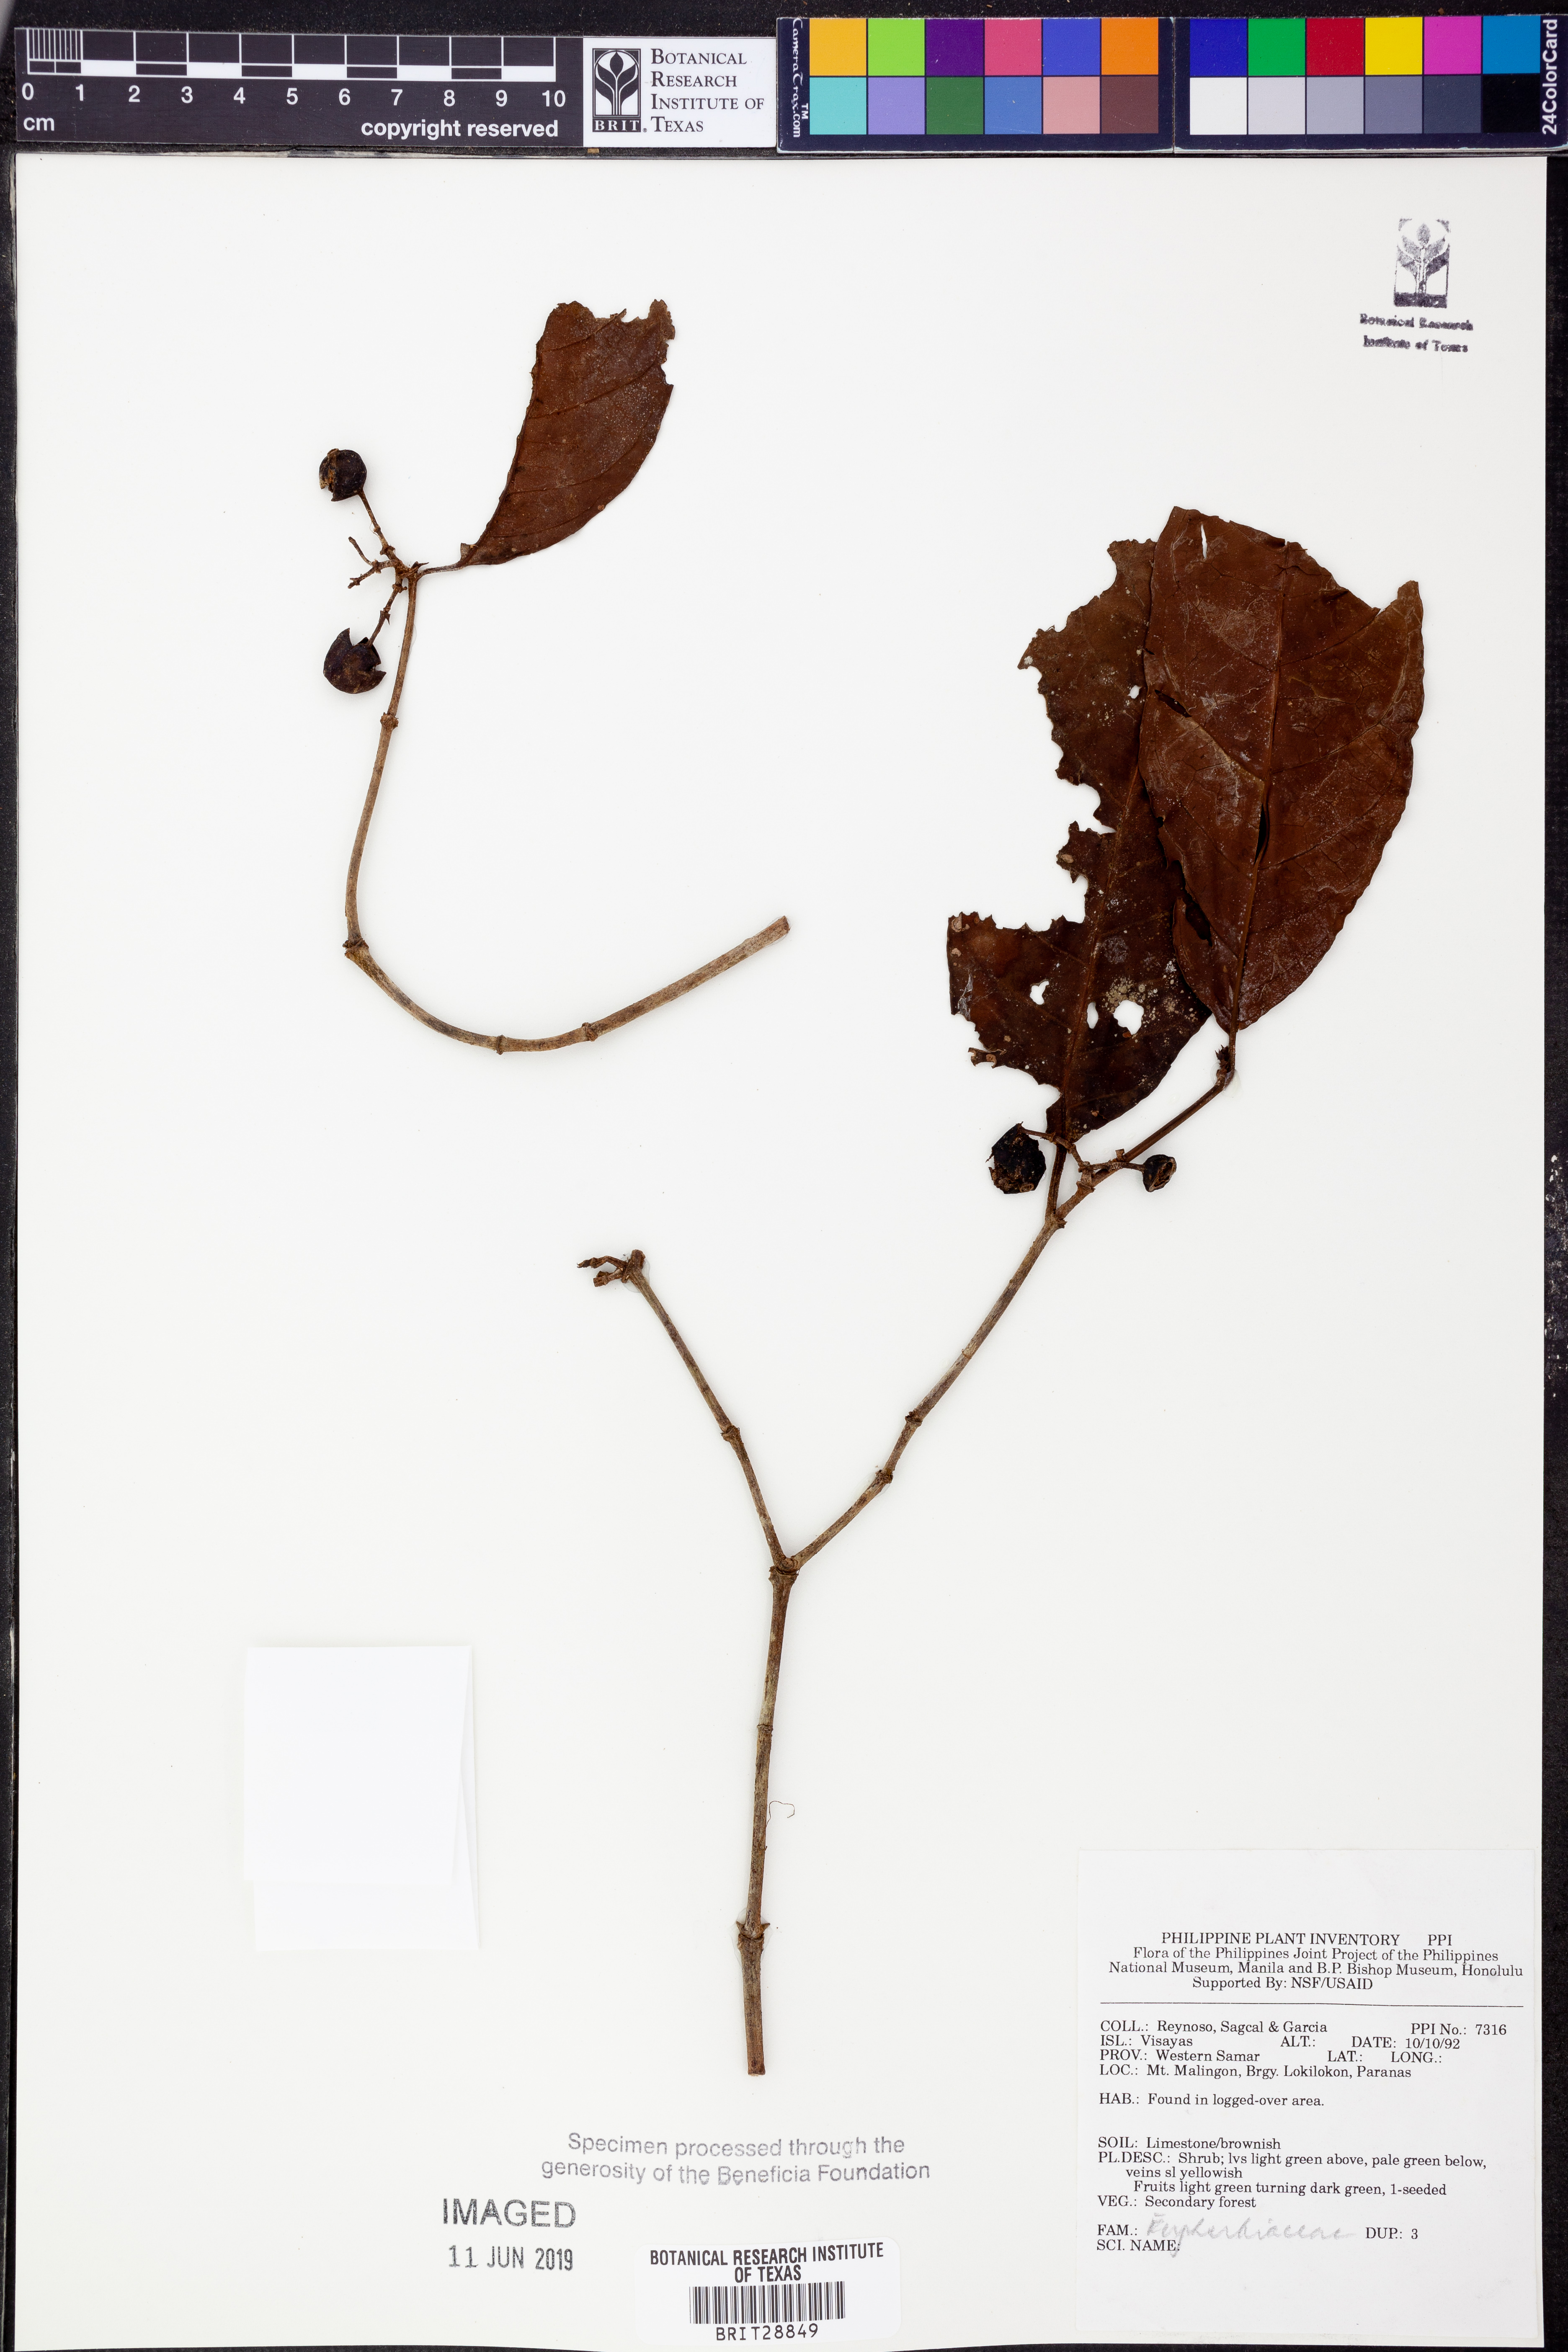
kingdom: Plantae
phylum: Tracheophyta
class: Magnoliopsida
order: Malpighiales
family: Euphorbiaceae
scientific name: Euphorbiaceae
